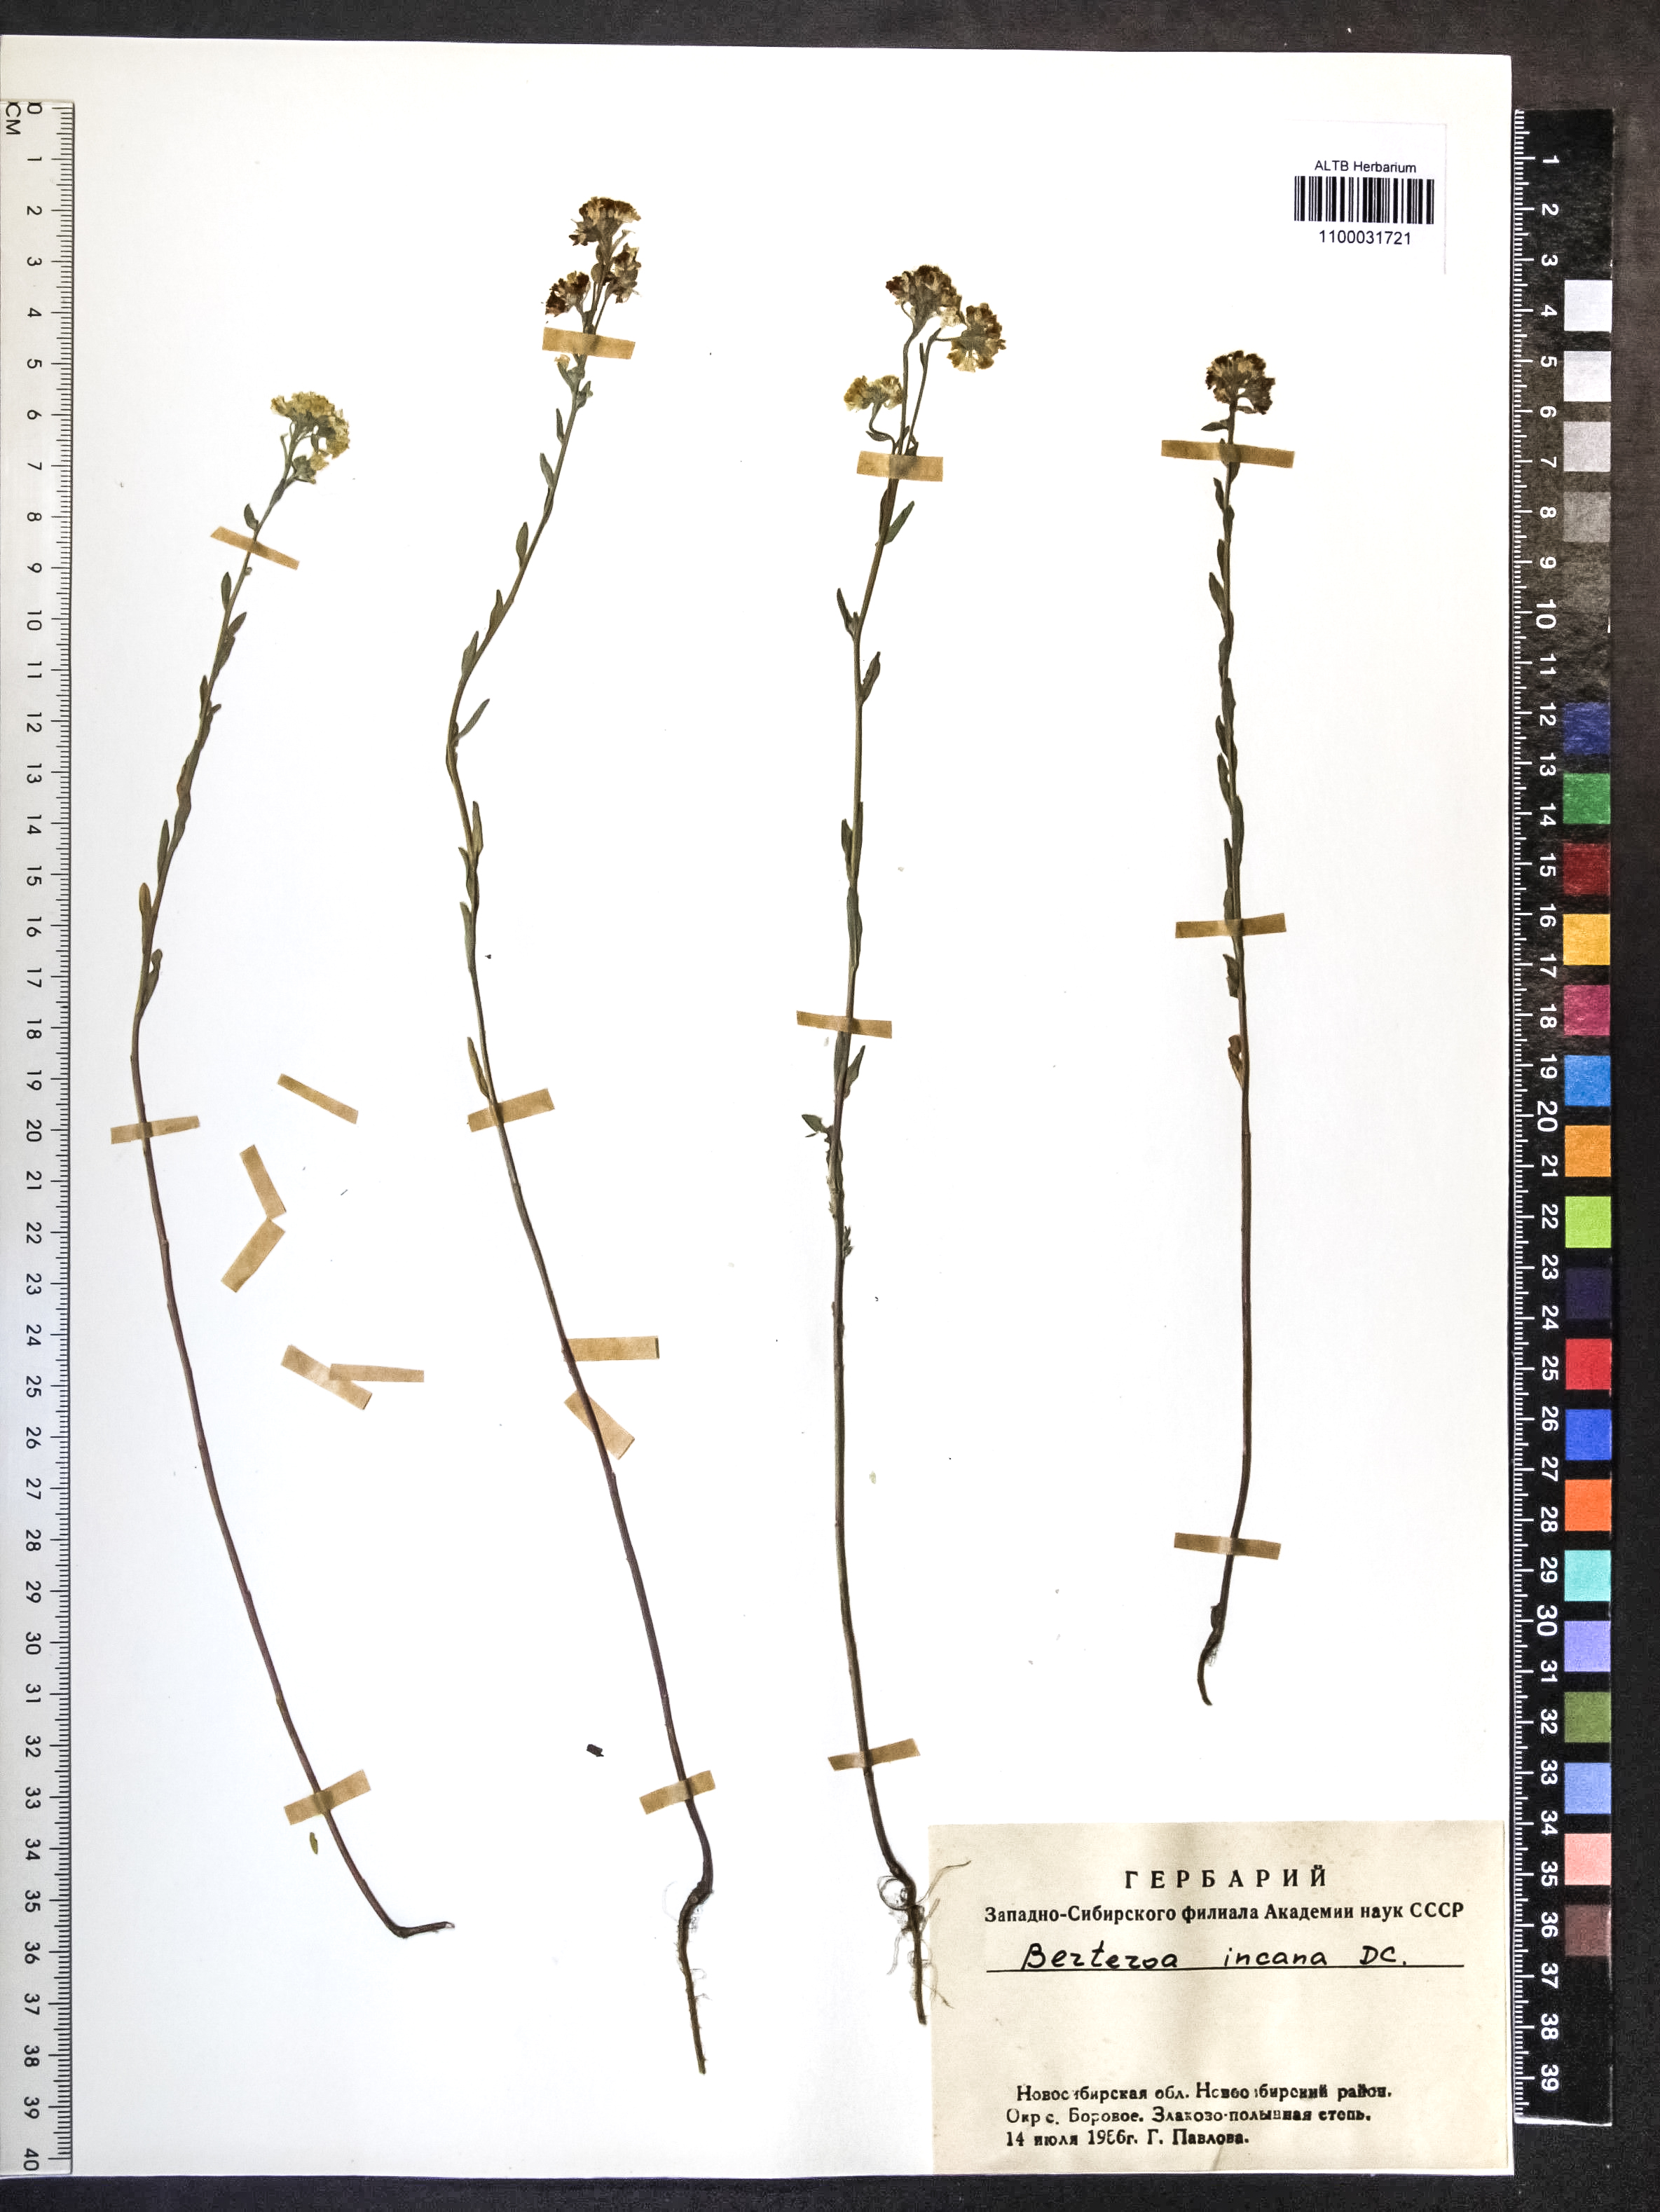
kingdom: Plantae
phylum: Tracheophyta
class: Magnoliopsida
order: Brassicales
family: Brassicaceae
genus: Berteroa
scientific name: Berteroa incana
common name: Hoary alison
